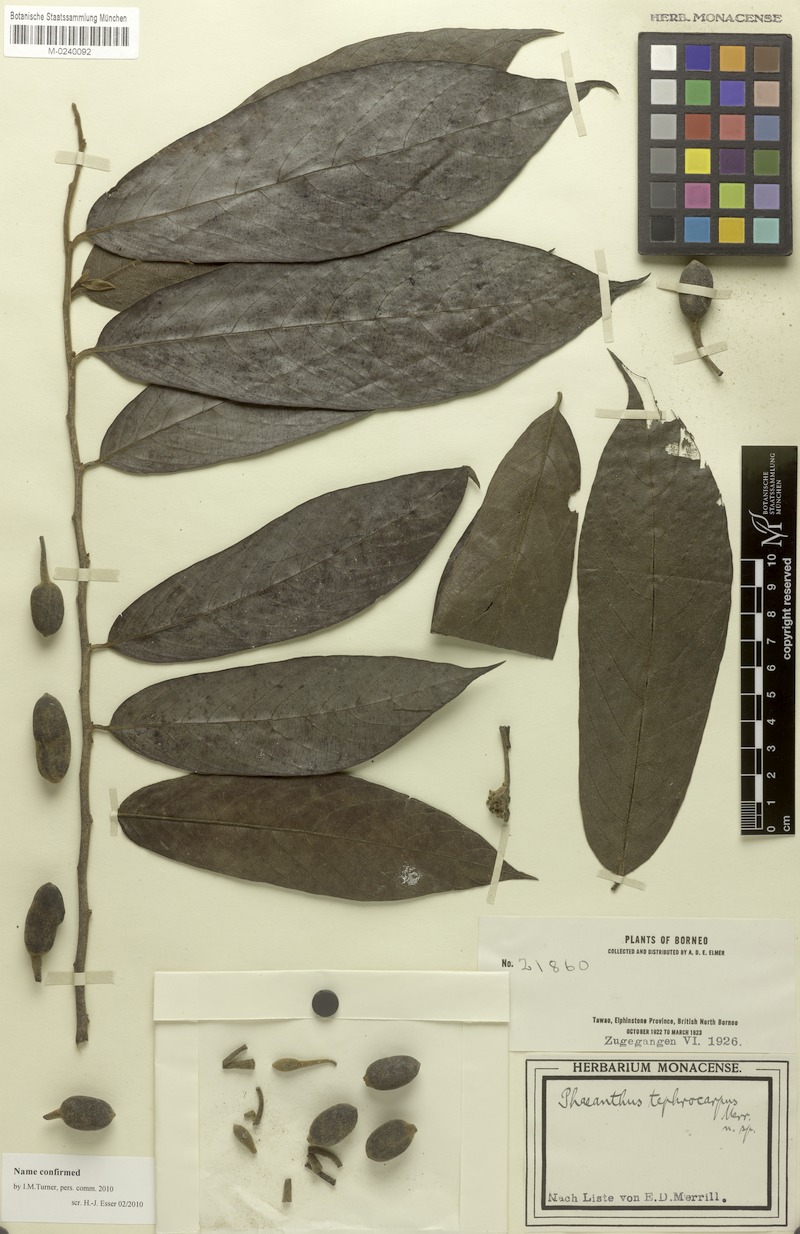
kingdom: Plantae
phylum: Tracheophyta
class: Magnoliopsida
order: Magnoliales
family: Annonaceae
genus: Phaeanthus
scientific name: Phaeanthus tephrocarpus
